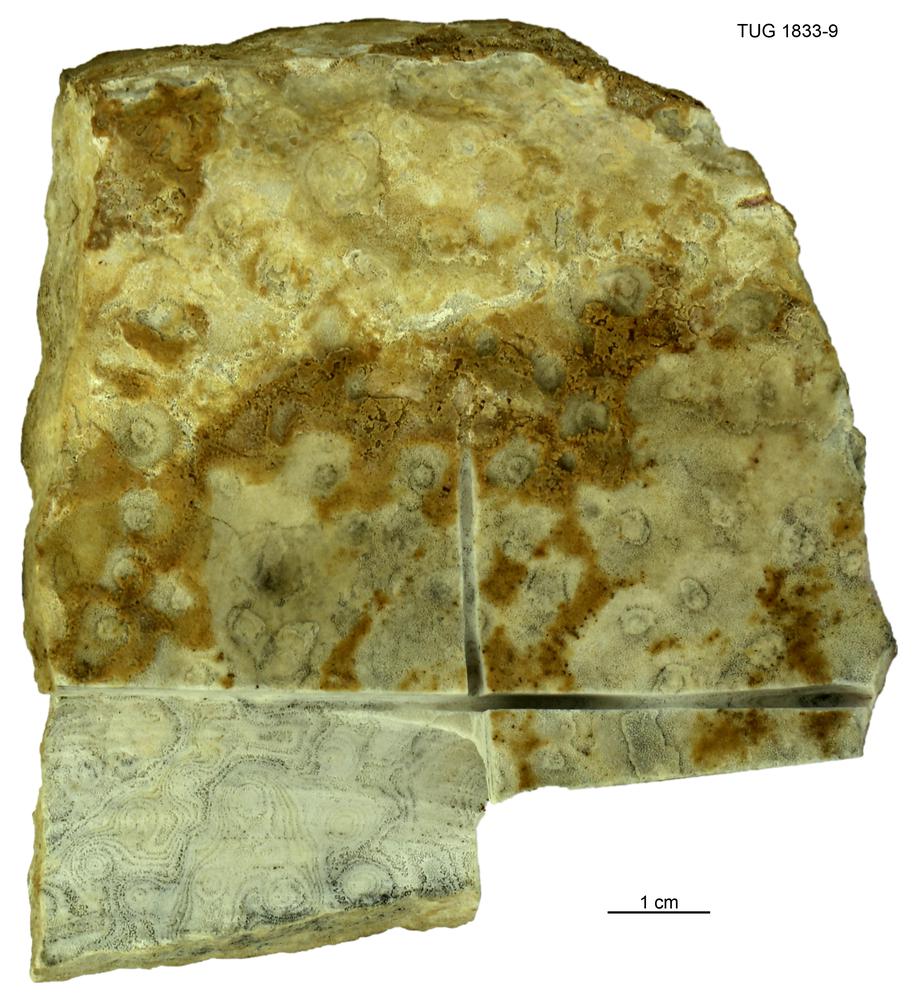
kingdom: Animalia
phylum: Porifera
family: Clathrodictyidae
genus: Stelodictyon
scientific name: Stelodictyon
